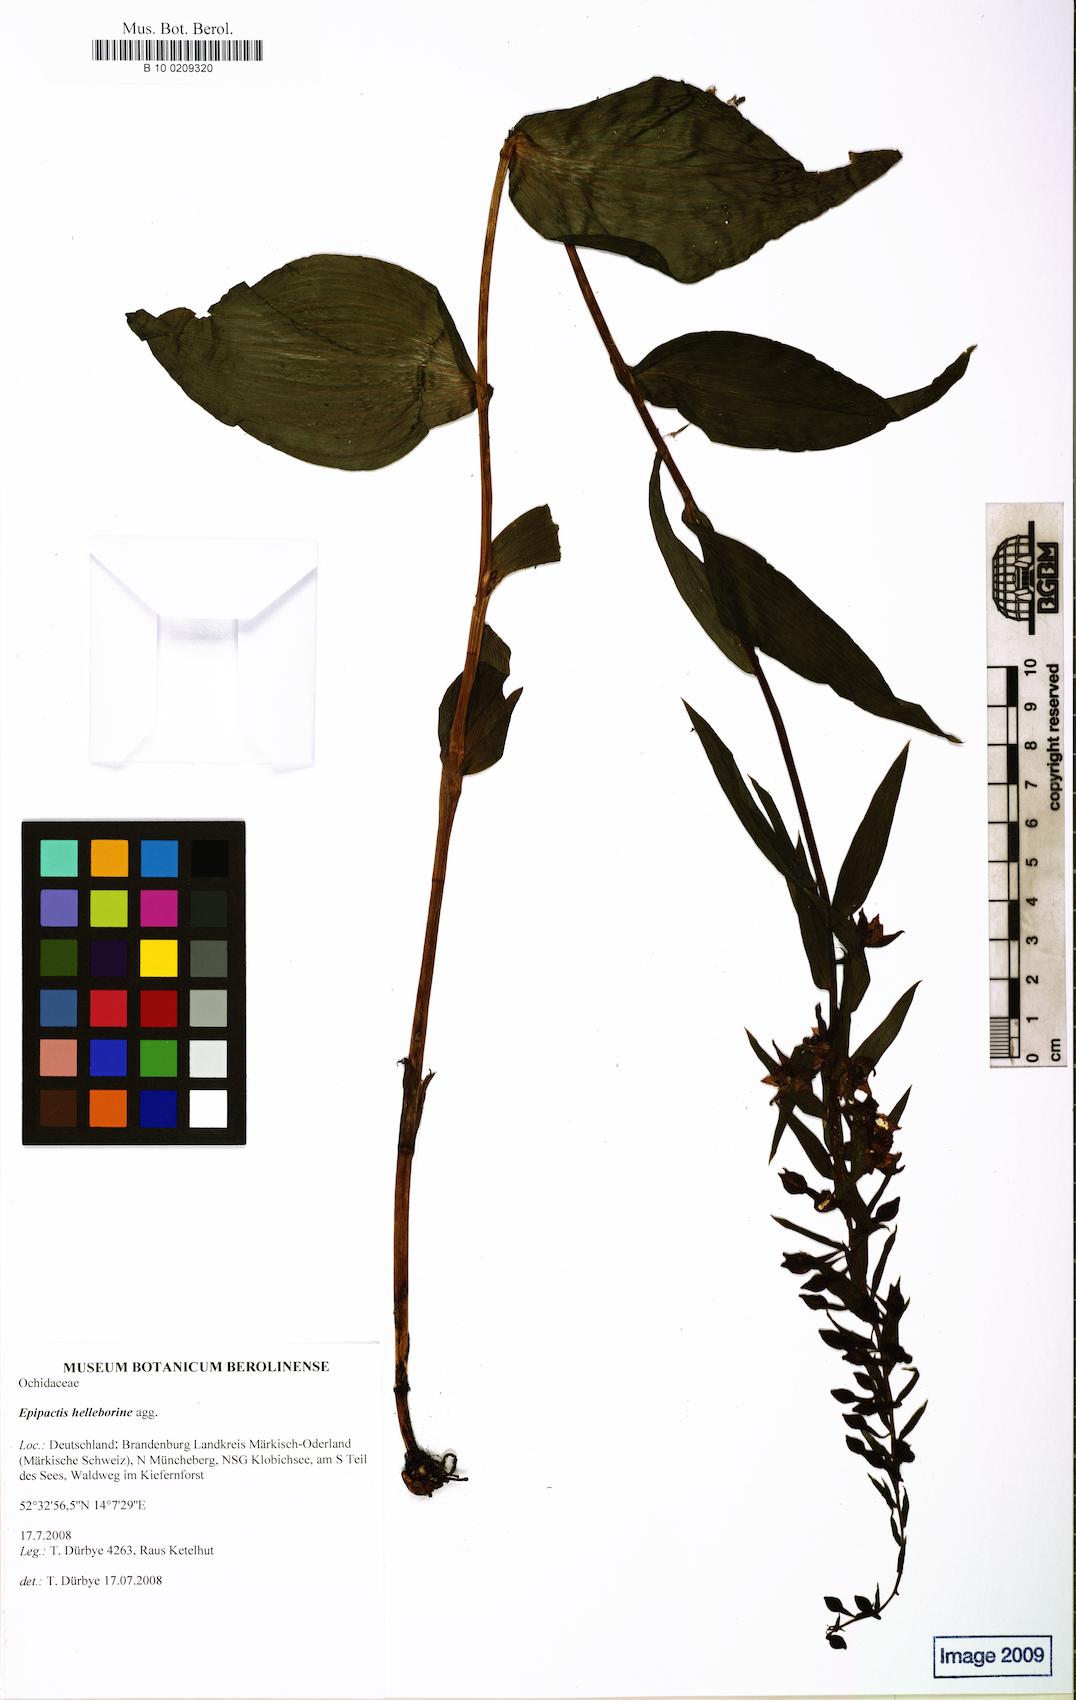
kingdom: Plantae
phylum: Tracheophyta
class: Liliopsida
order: Asparagales
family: Orchidaceae
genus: Epipactis
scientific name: Epipactis
